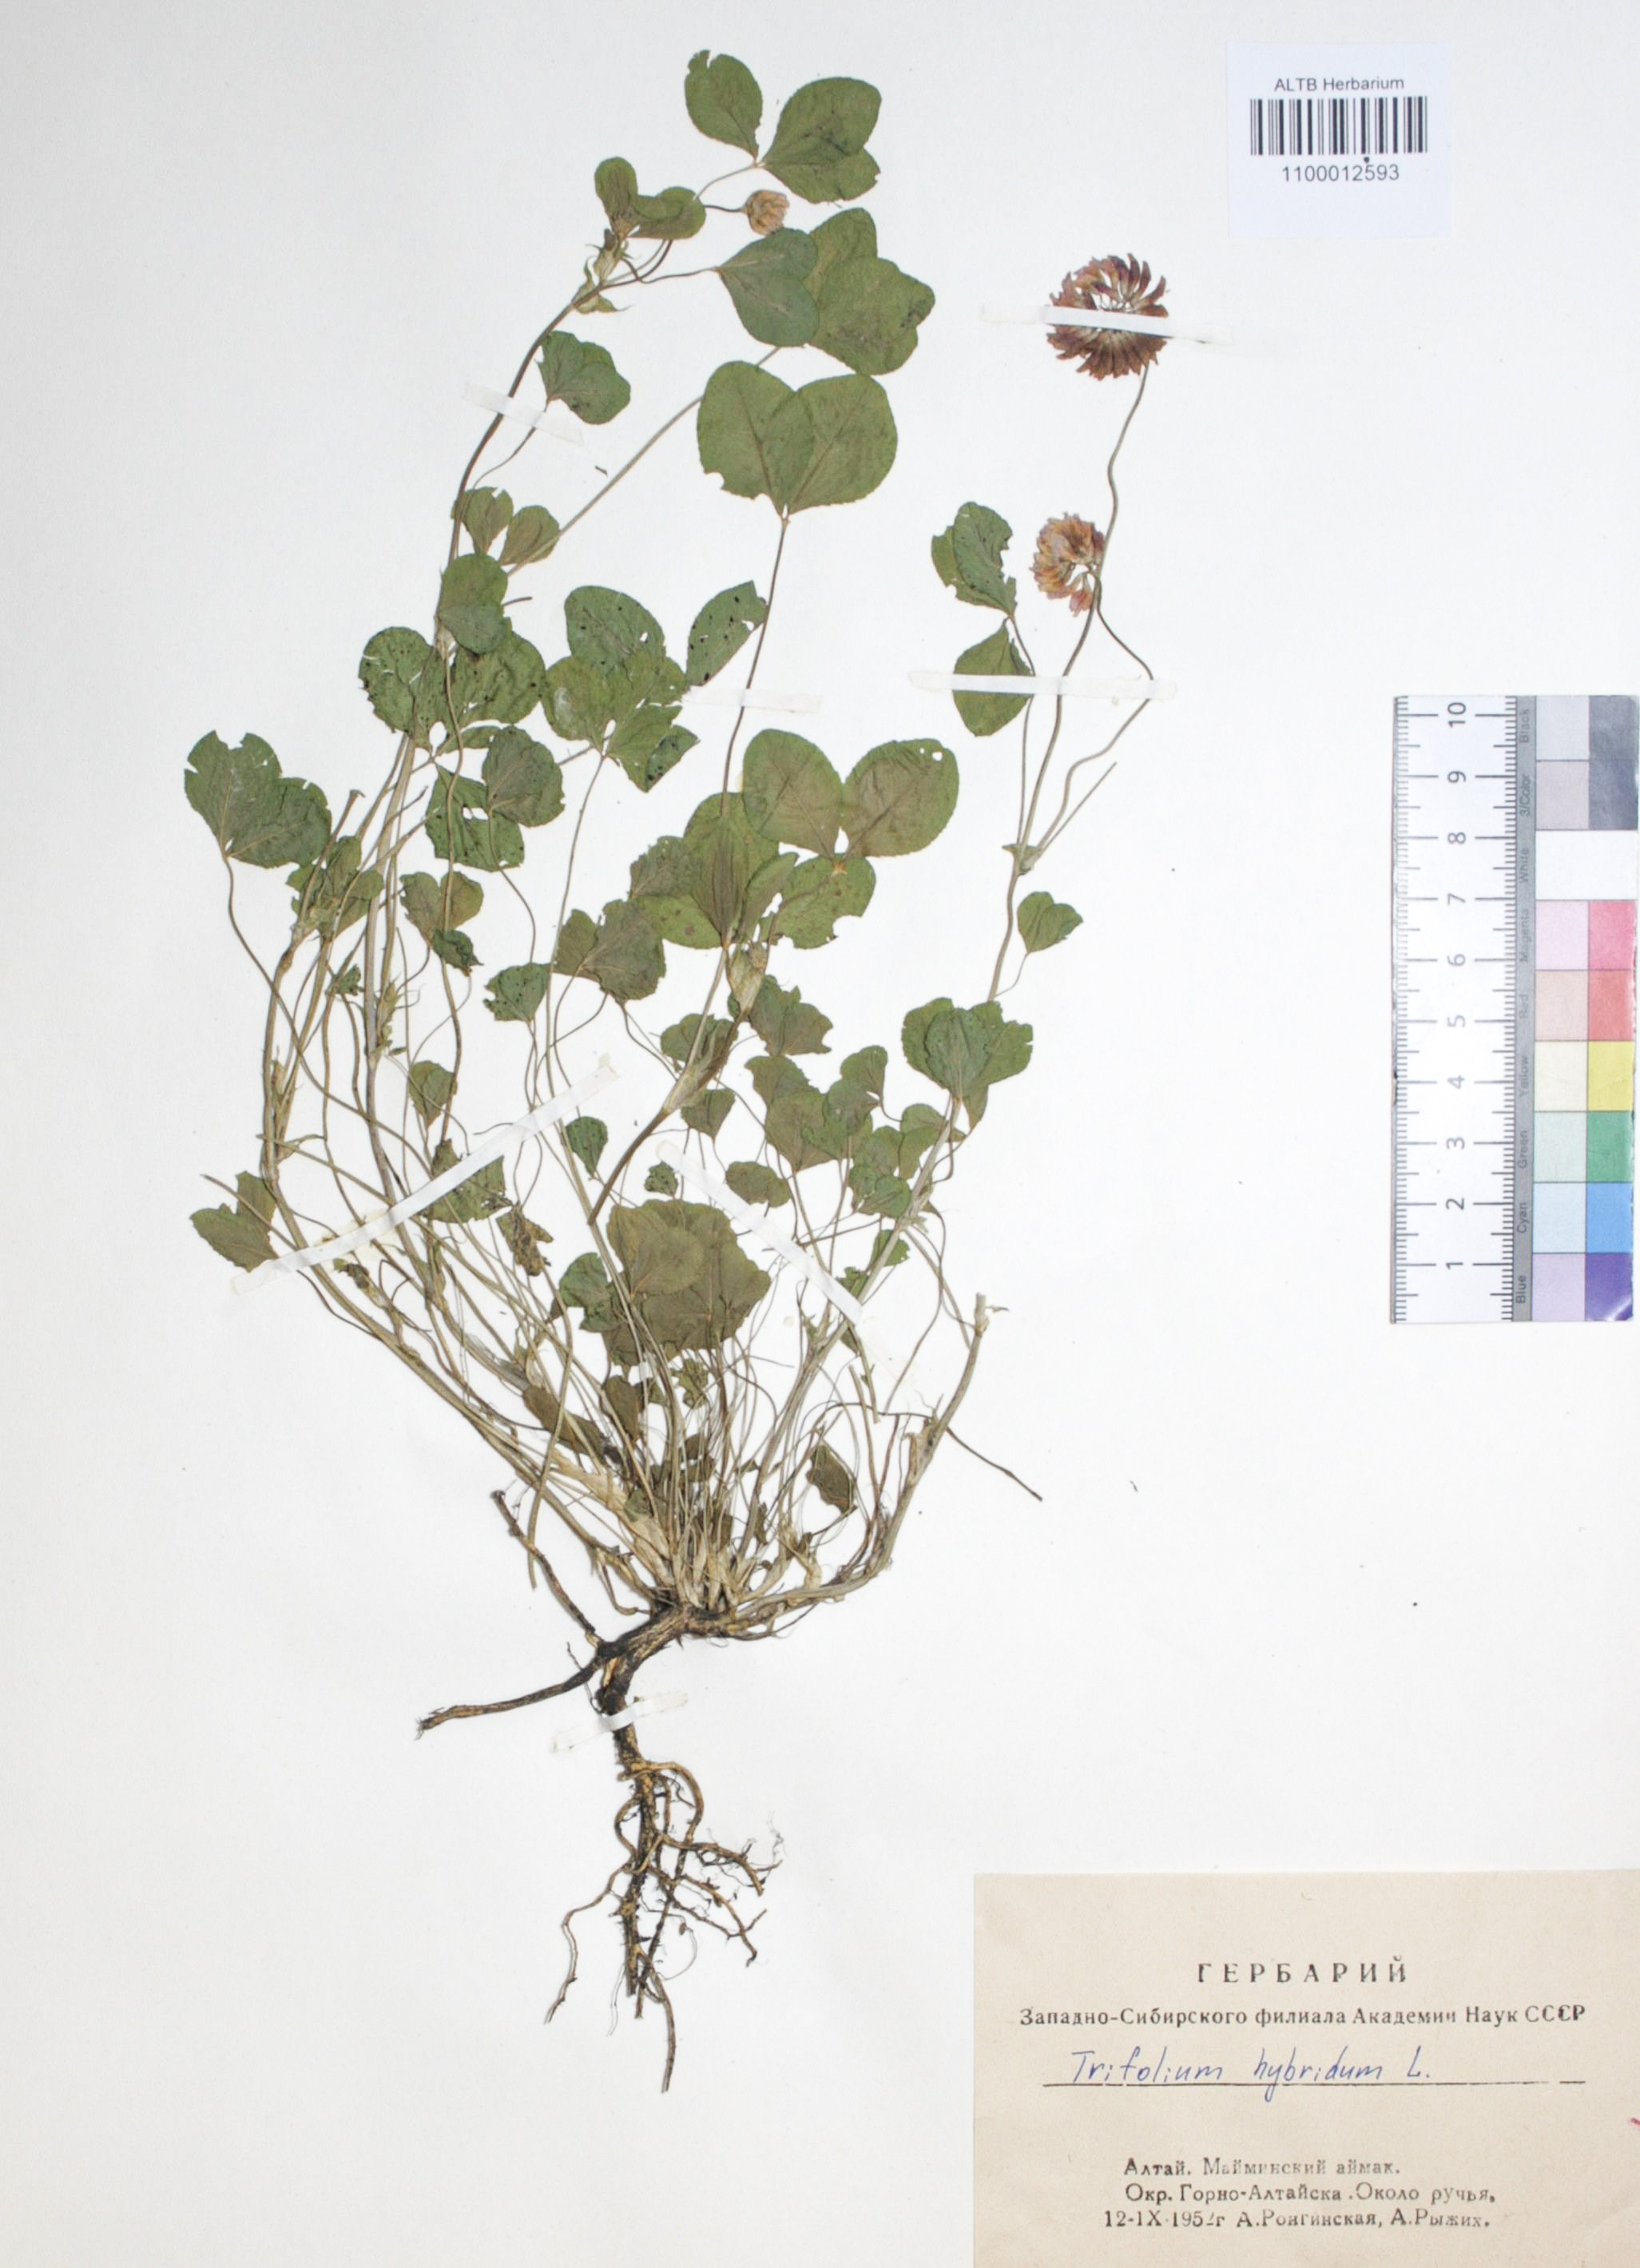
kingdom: Plantae
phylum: Tracheophyta
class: Magnoliopsida
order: Fabales
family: Fabaceae
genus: Trifolium
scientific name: Trifolium hybridum
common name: Alsike clover
